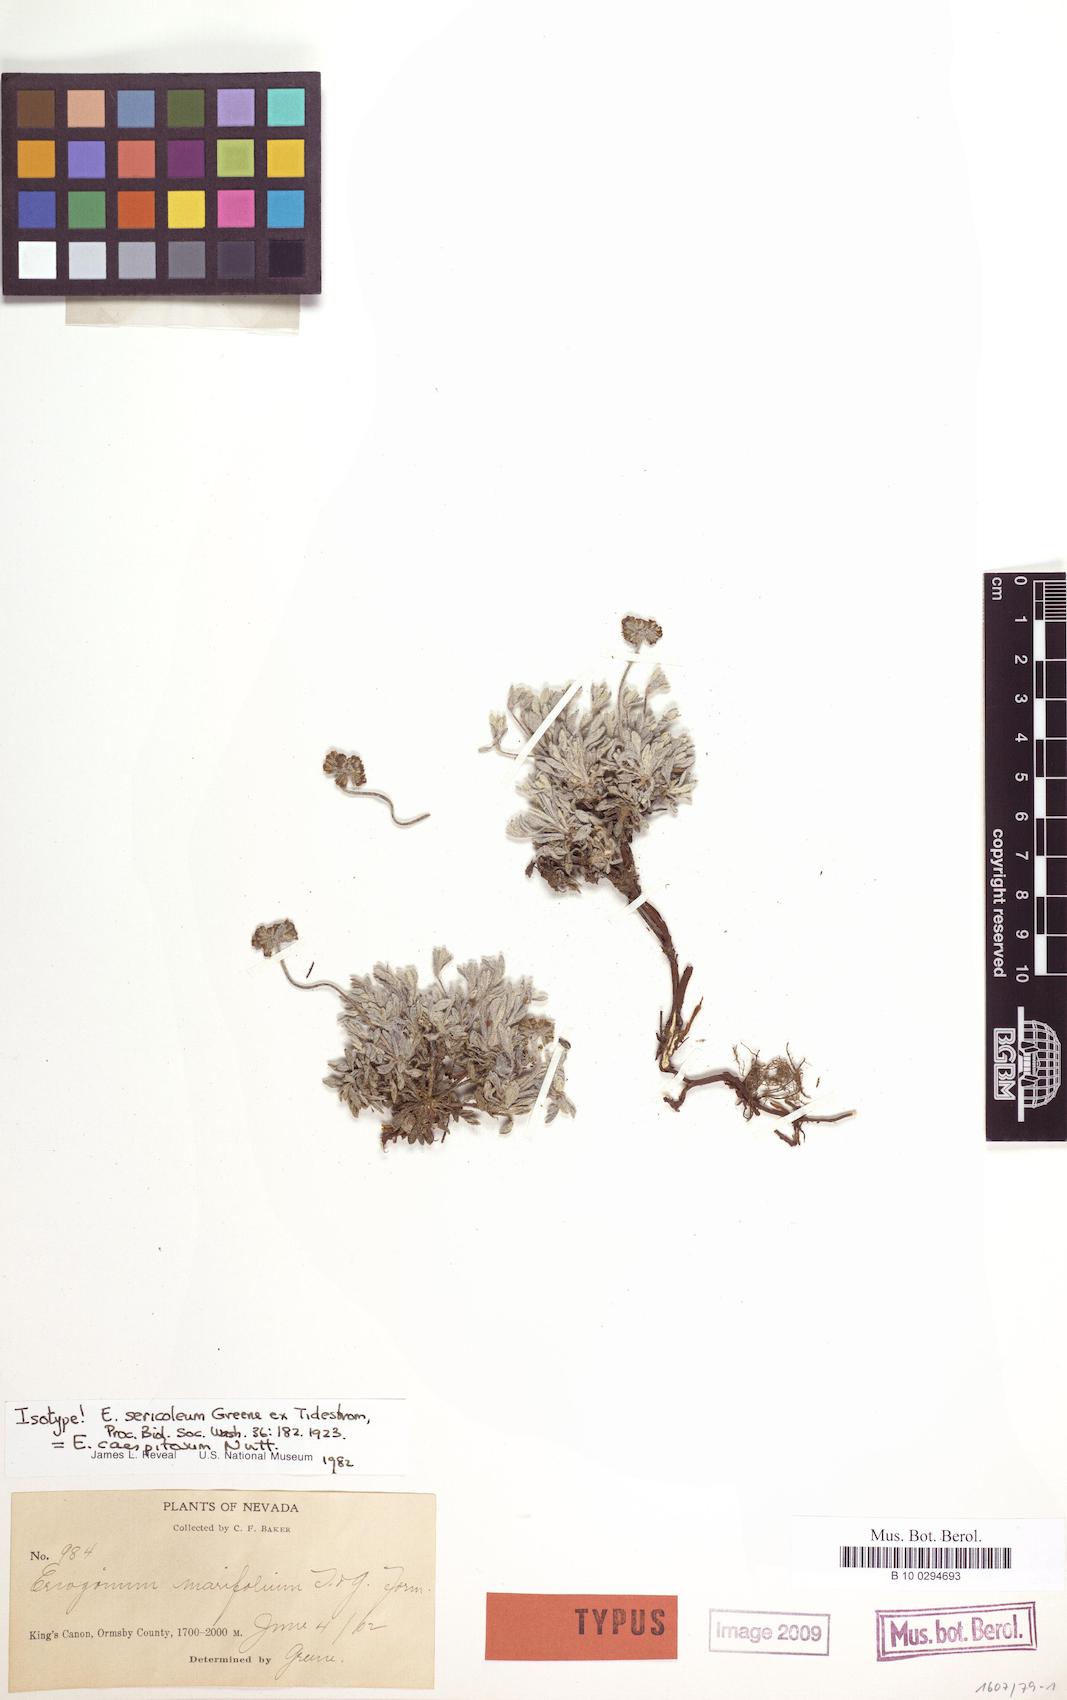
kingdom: Plantae
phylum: Tracheophyta
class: Magnoliopsida
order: Caryophyllales
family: Polygonaceae
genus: Eriogonum
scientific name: Eriogonum caespitosum
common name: Matted wild buckwheat
